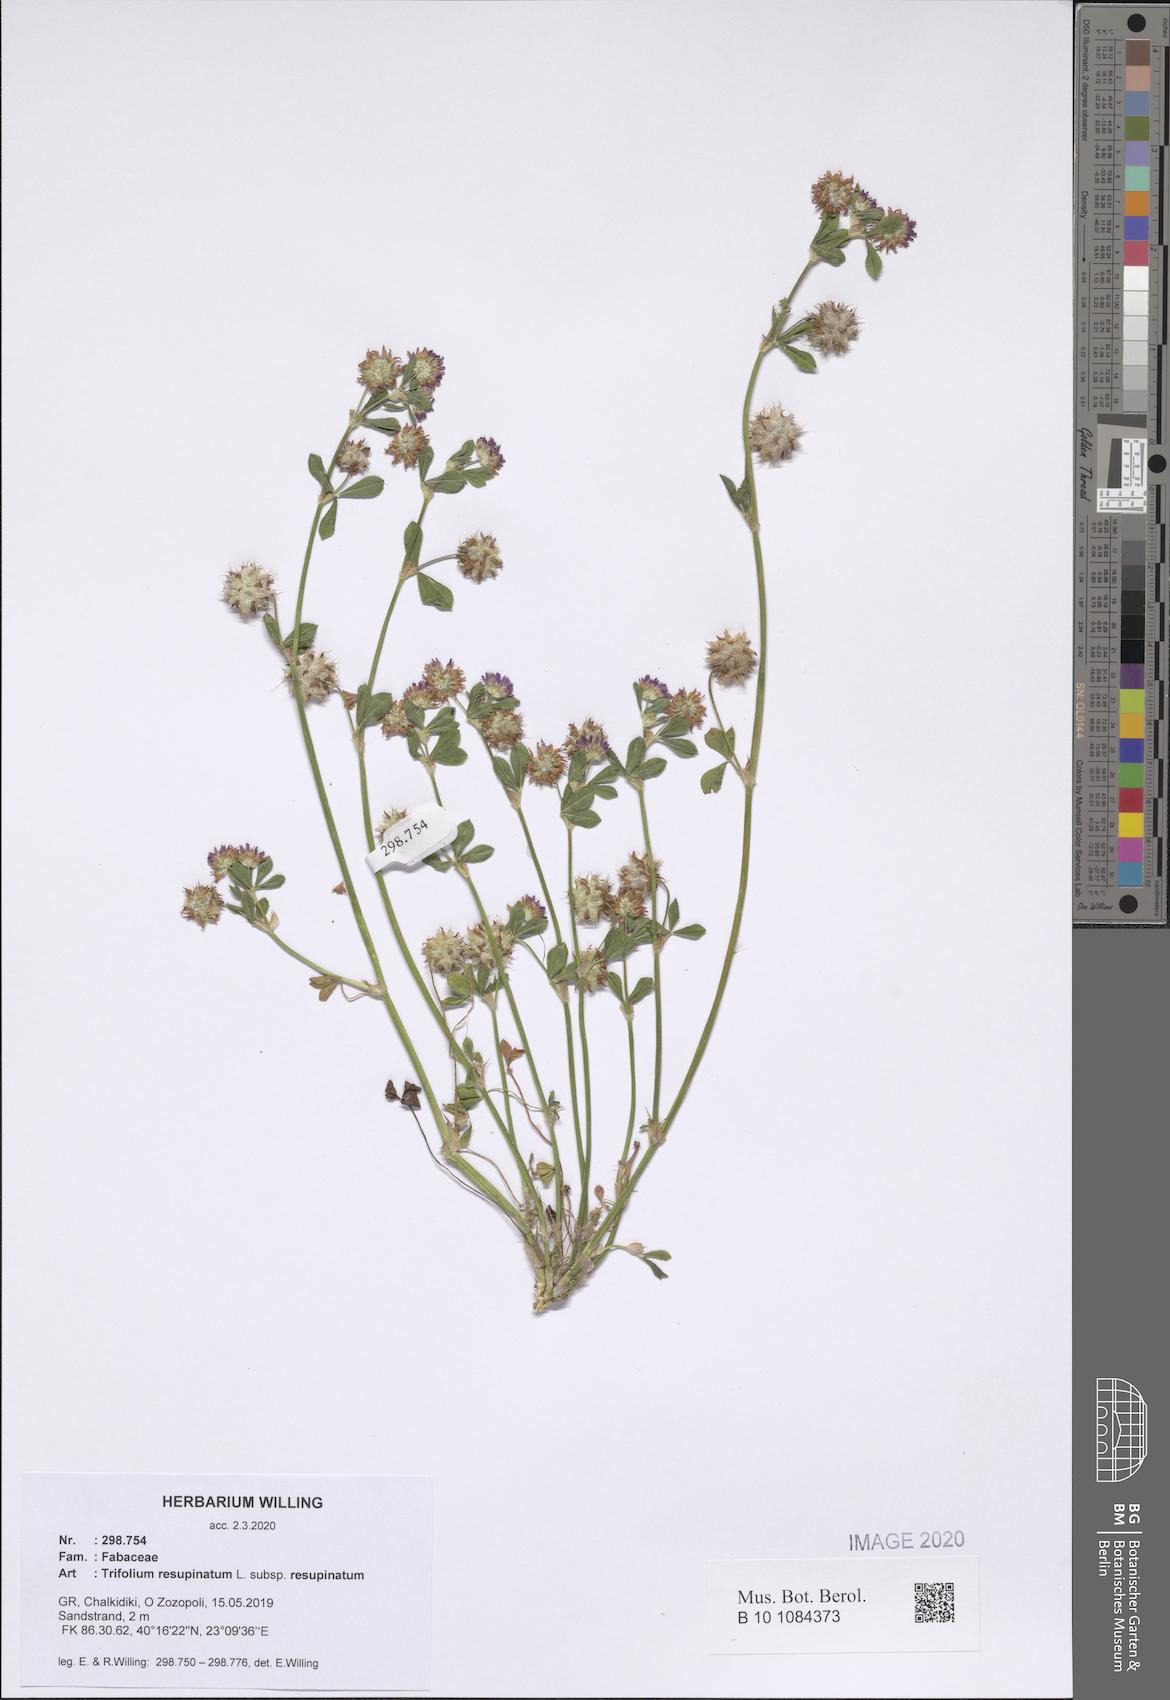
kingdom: Plantae
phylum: Tracheophyta
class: Magnoliopsida
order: Fabales
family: Fabaceae
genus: Trifolium
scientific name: Trifolium resupinatum
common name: Reversed clover
